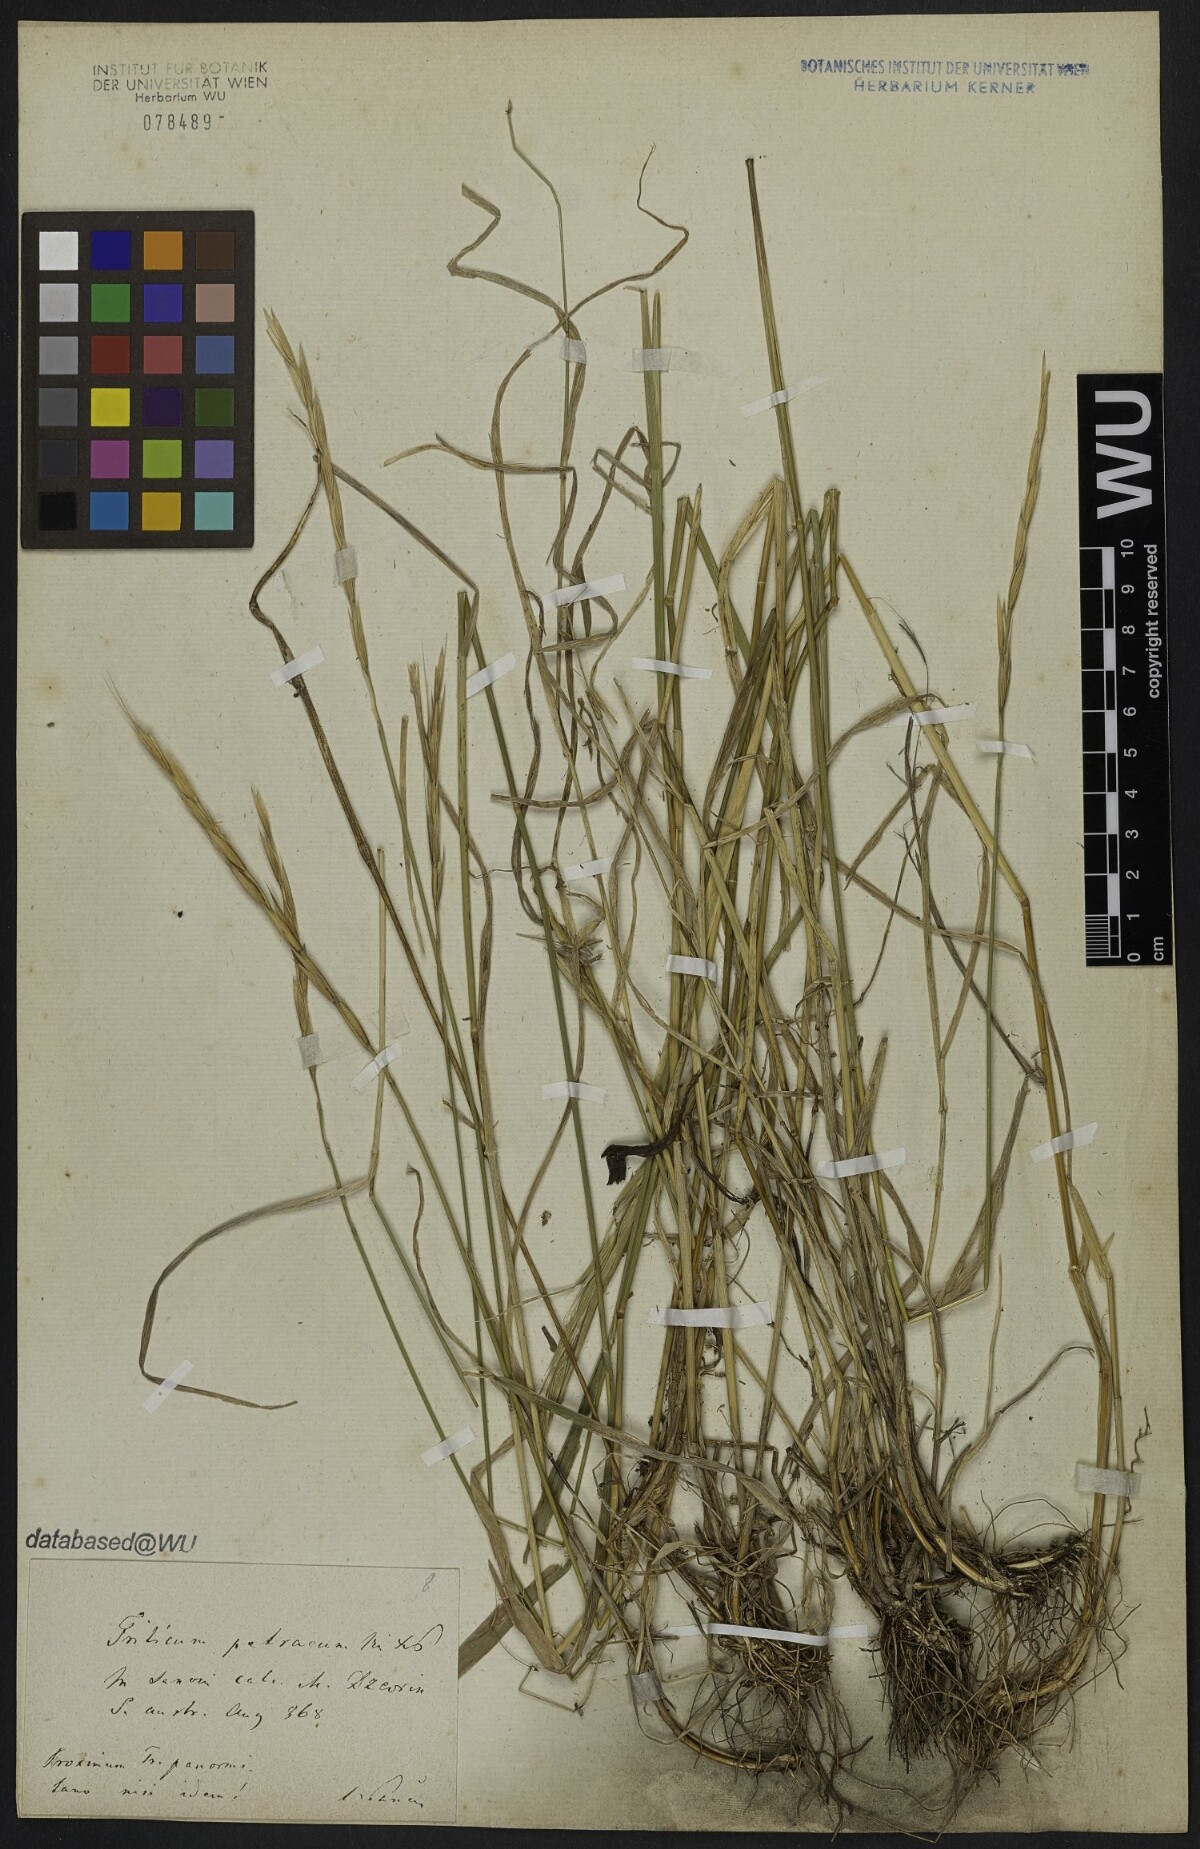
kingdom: Plantae
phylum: Tracheophyta
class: Liliopsida
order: Poales
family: Poaceae
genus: Elymus
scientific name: Elymus panormitanus
